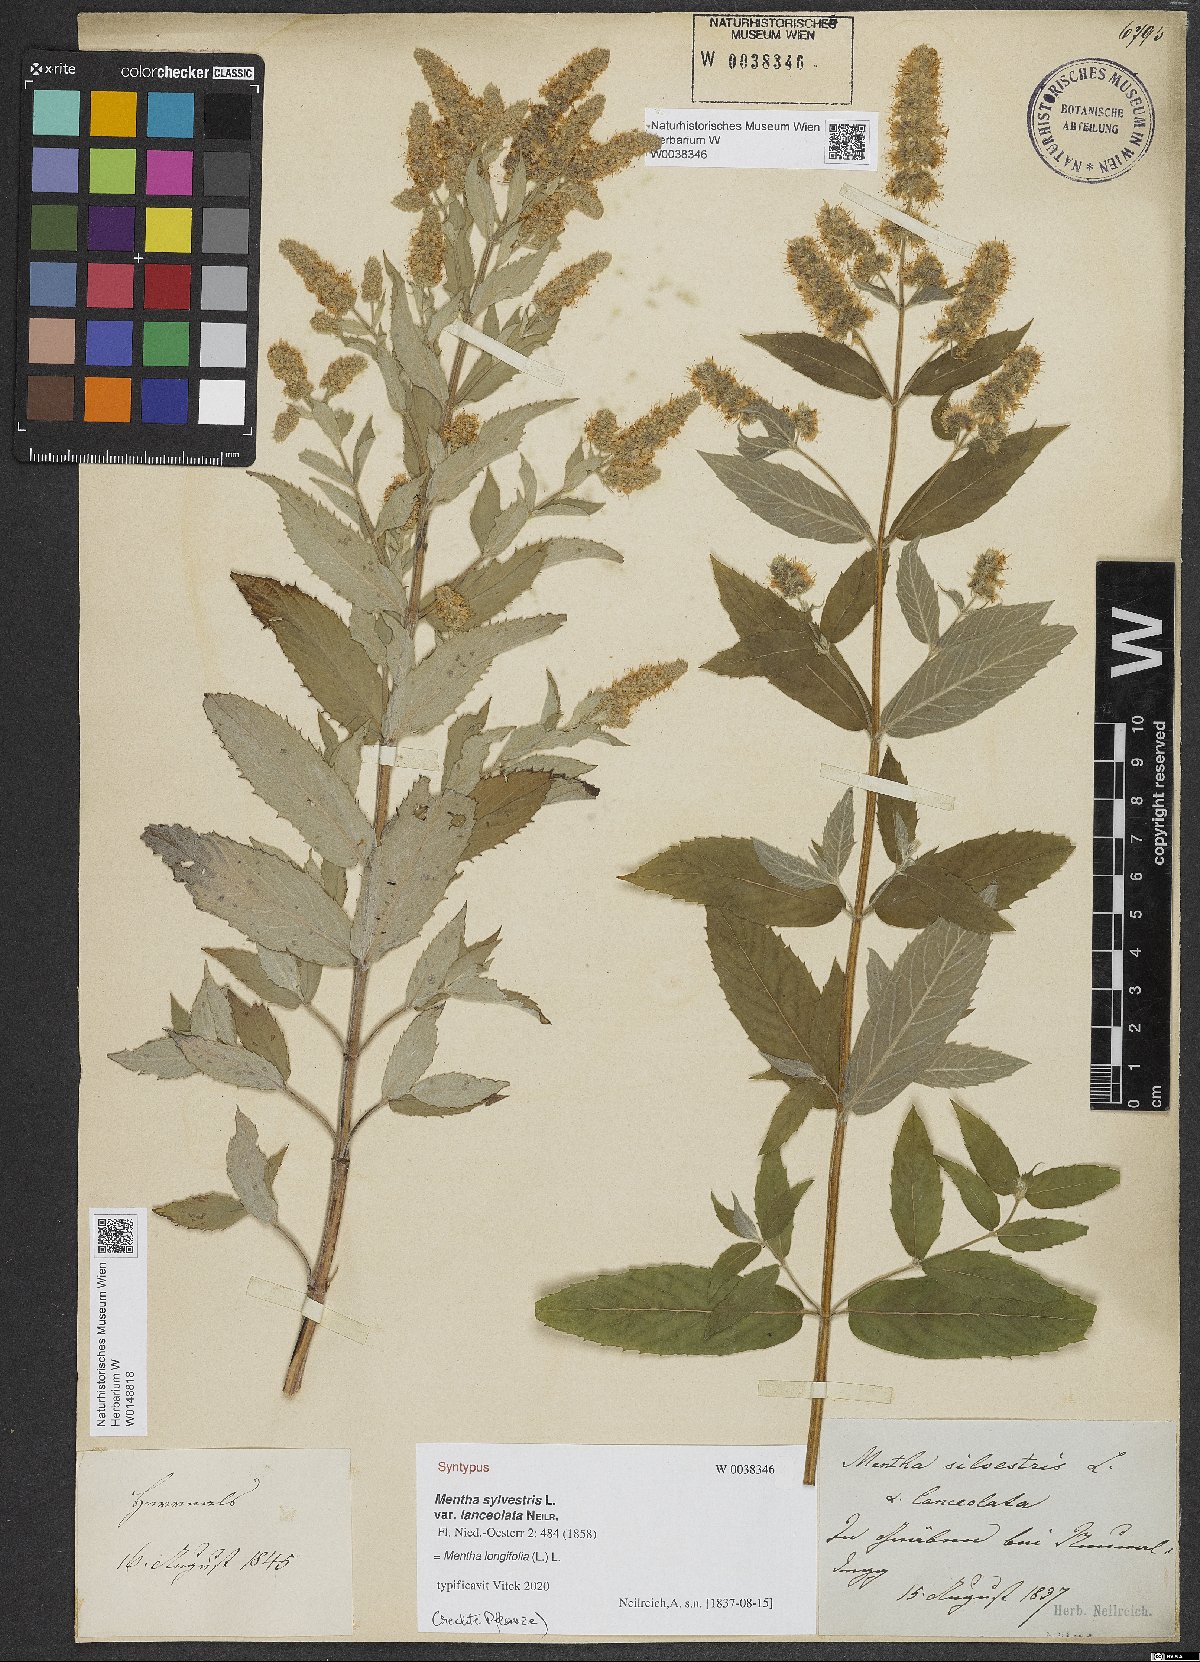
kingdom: Plantae
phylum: Tracheophyta
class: Magnoliopsida
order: Lamiales
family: Lamiaceae
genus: Mentha
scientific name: Mentha
